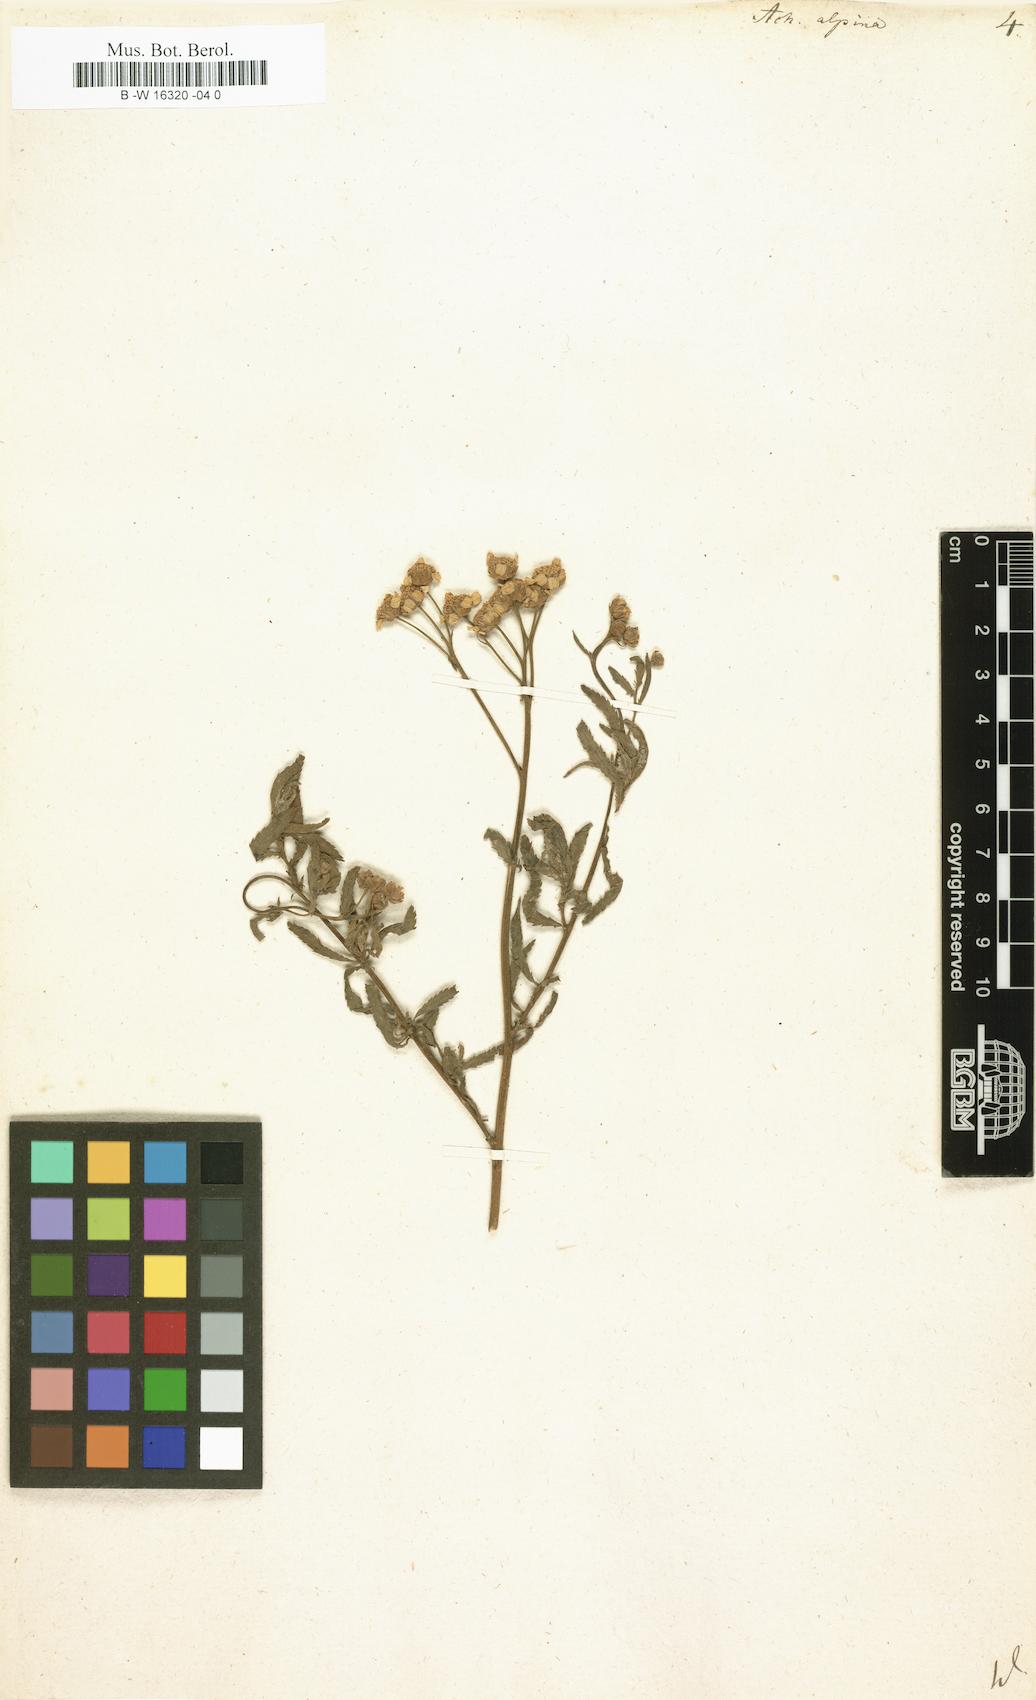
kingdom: Plantae
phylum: Tracheophyta
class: Magnoliopsida
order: Asterales
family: Asteraceae
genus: Achillea
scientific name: Achillea alpina
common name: Siberian yarrow
